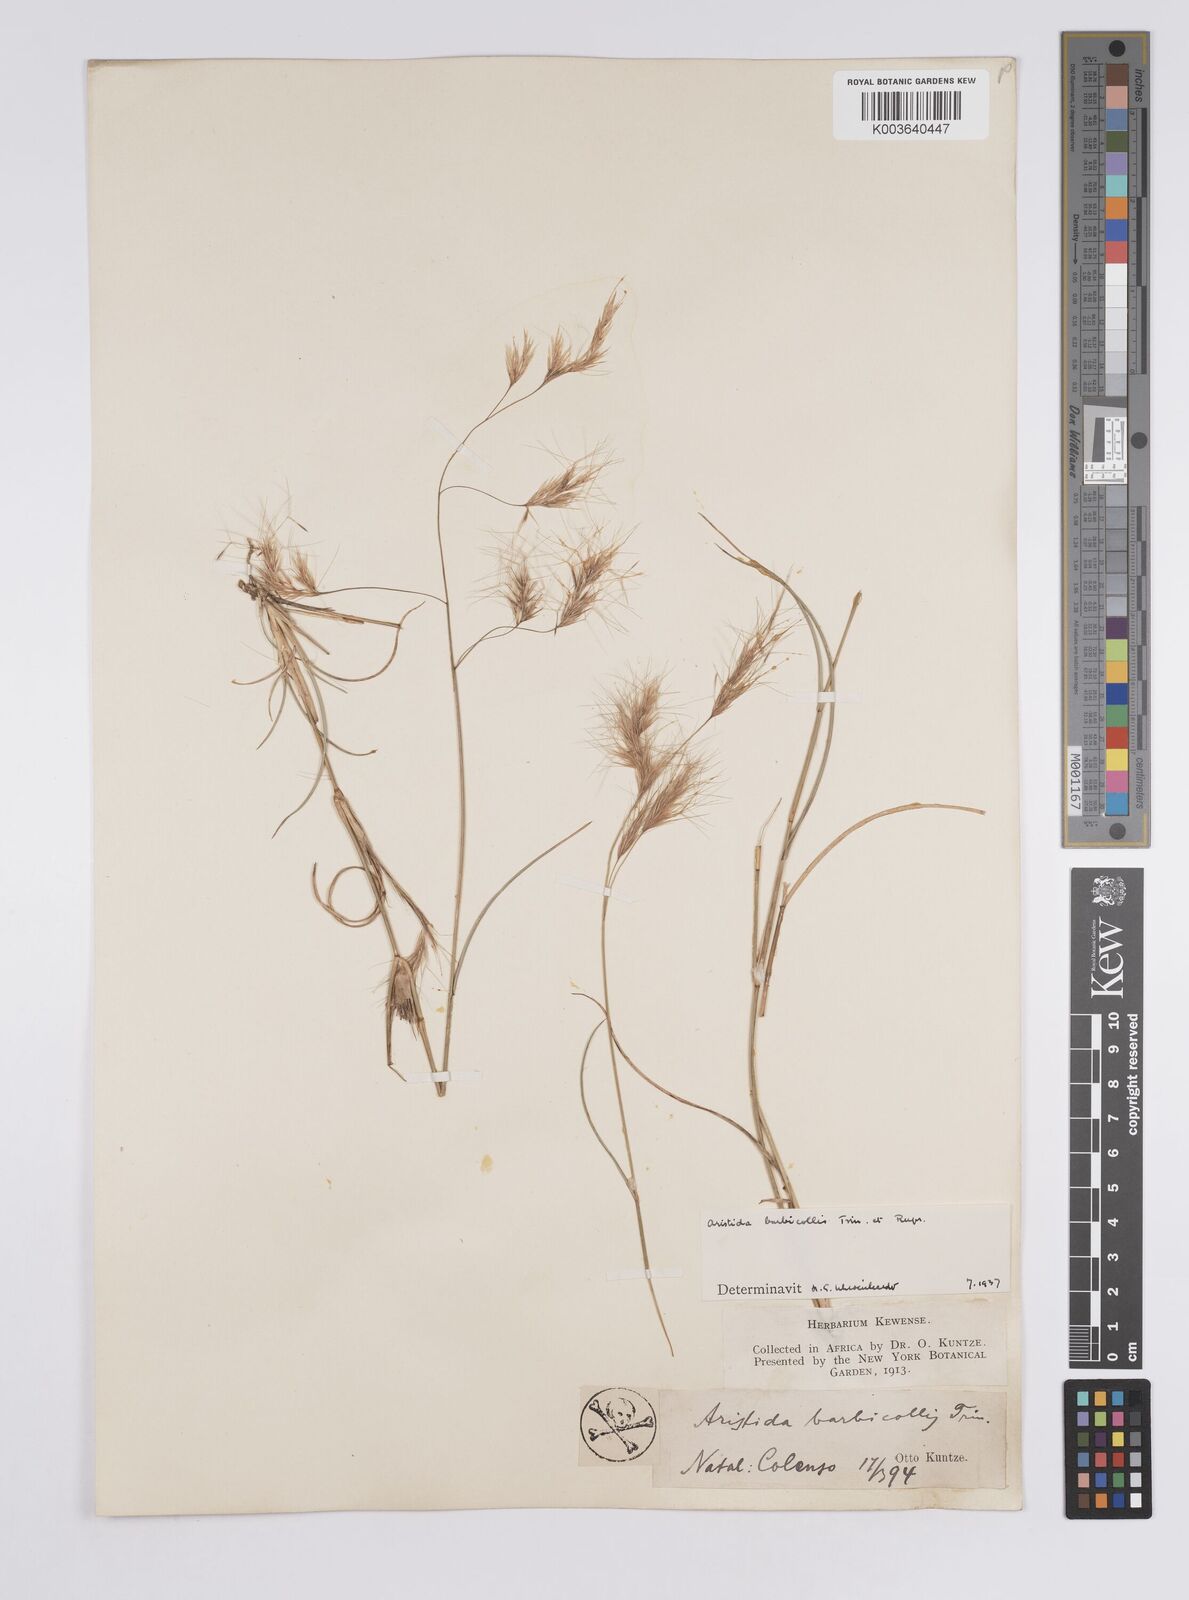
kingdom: Plantae
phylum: Tracheophyta
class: Liliopsida
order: Poales
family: Poaceae
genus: Aristida
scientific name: Aristida barbicollis
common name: Spreading prickle grass
